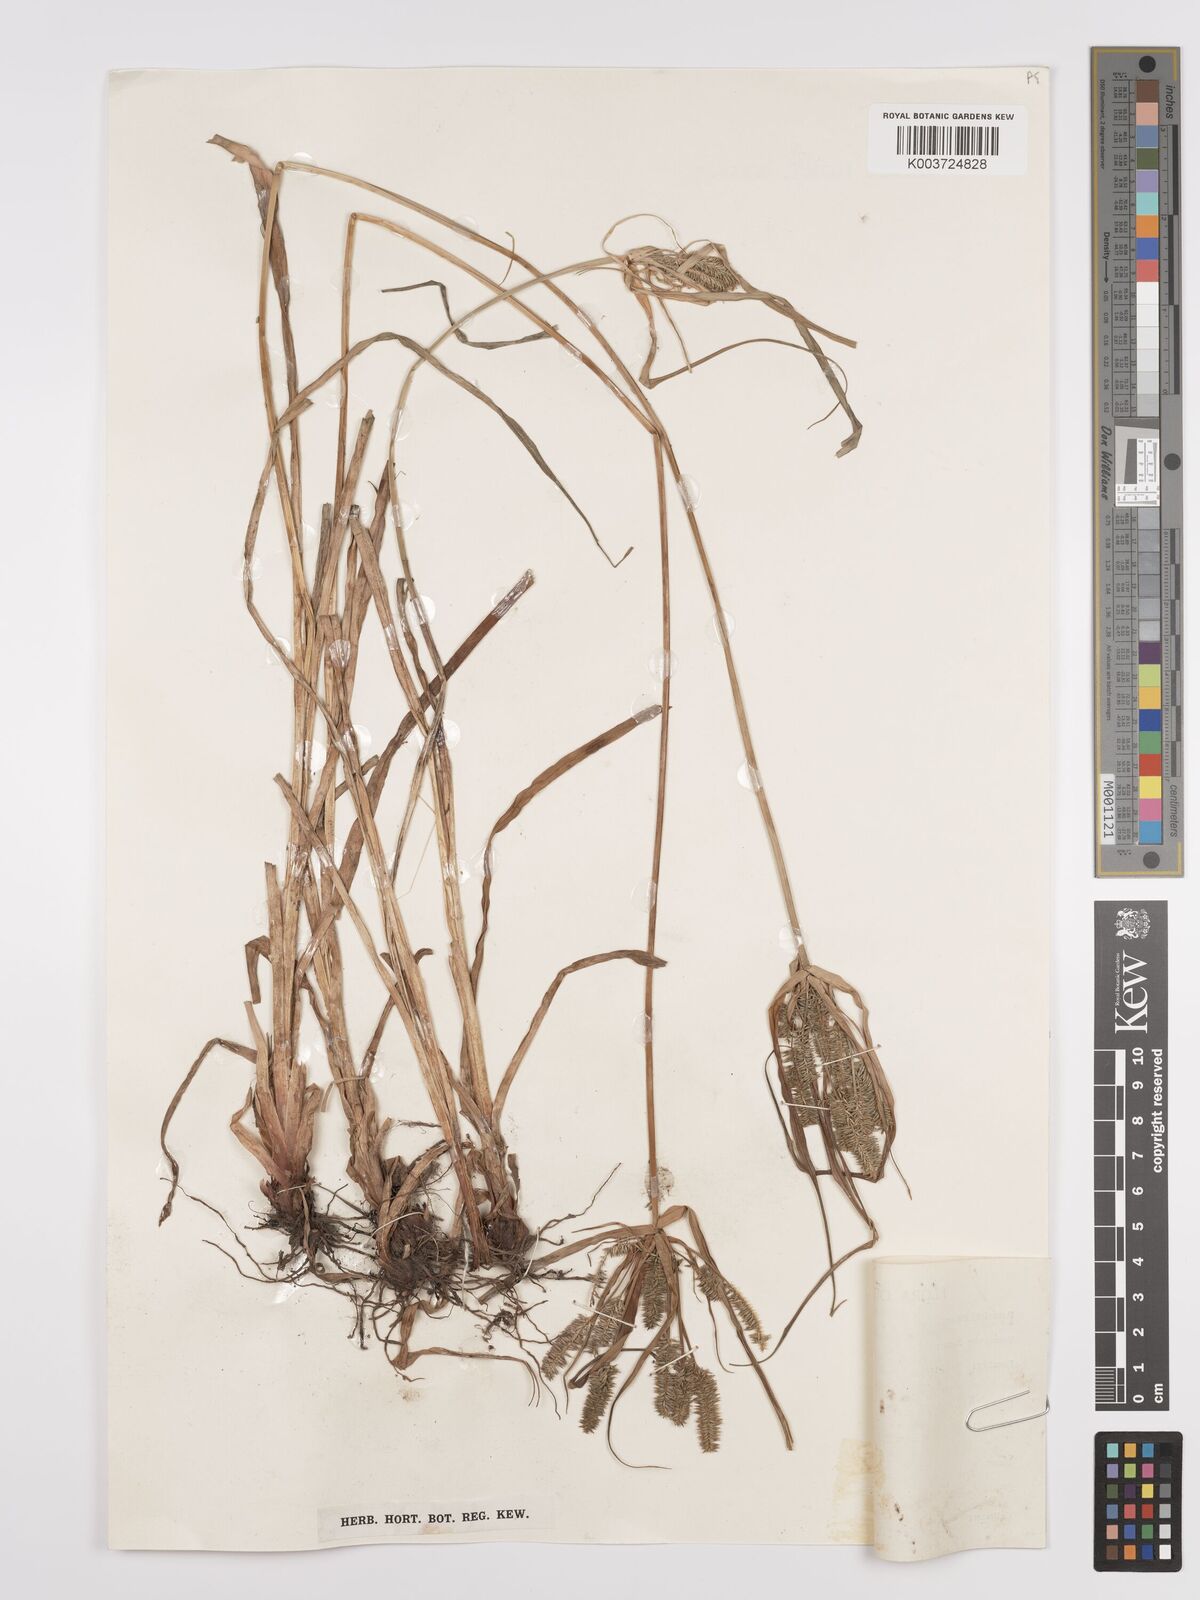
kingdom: Plantae
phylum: Tracheophyta
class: Liliopsida
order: Poales
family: Cyperaceae
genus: Cyperus
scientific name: Cyperus cyperoides
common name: Pacific island flat sedge
